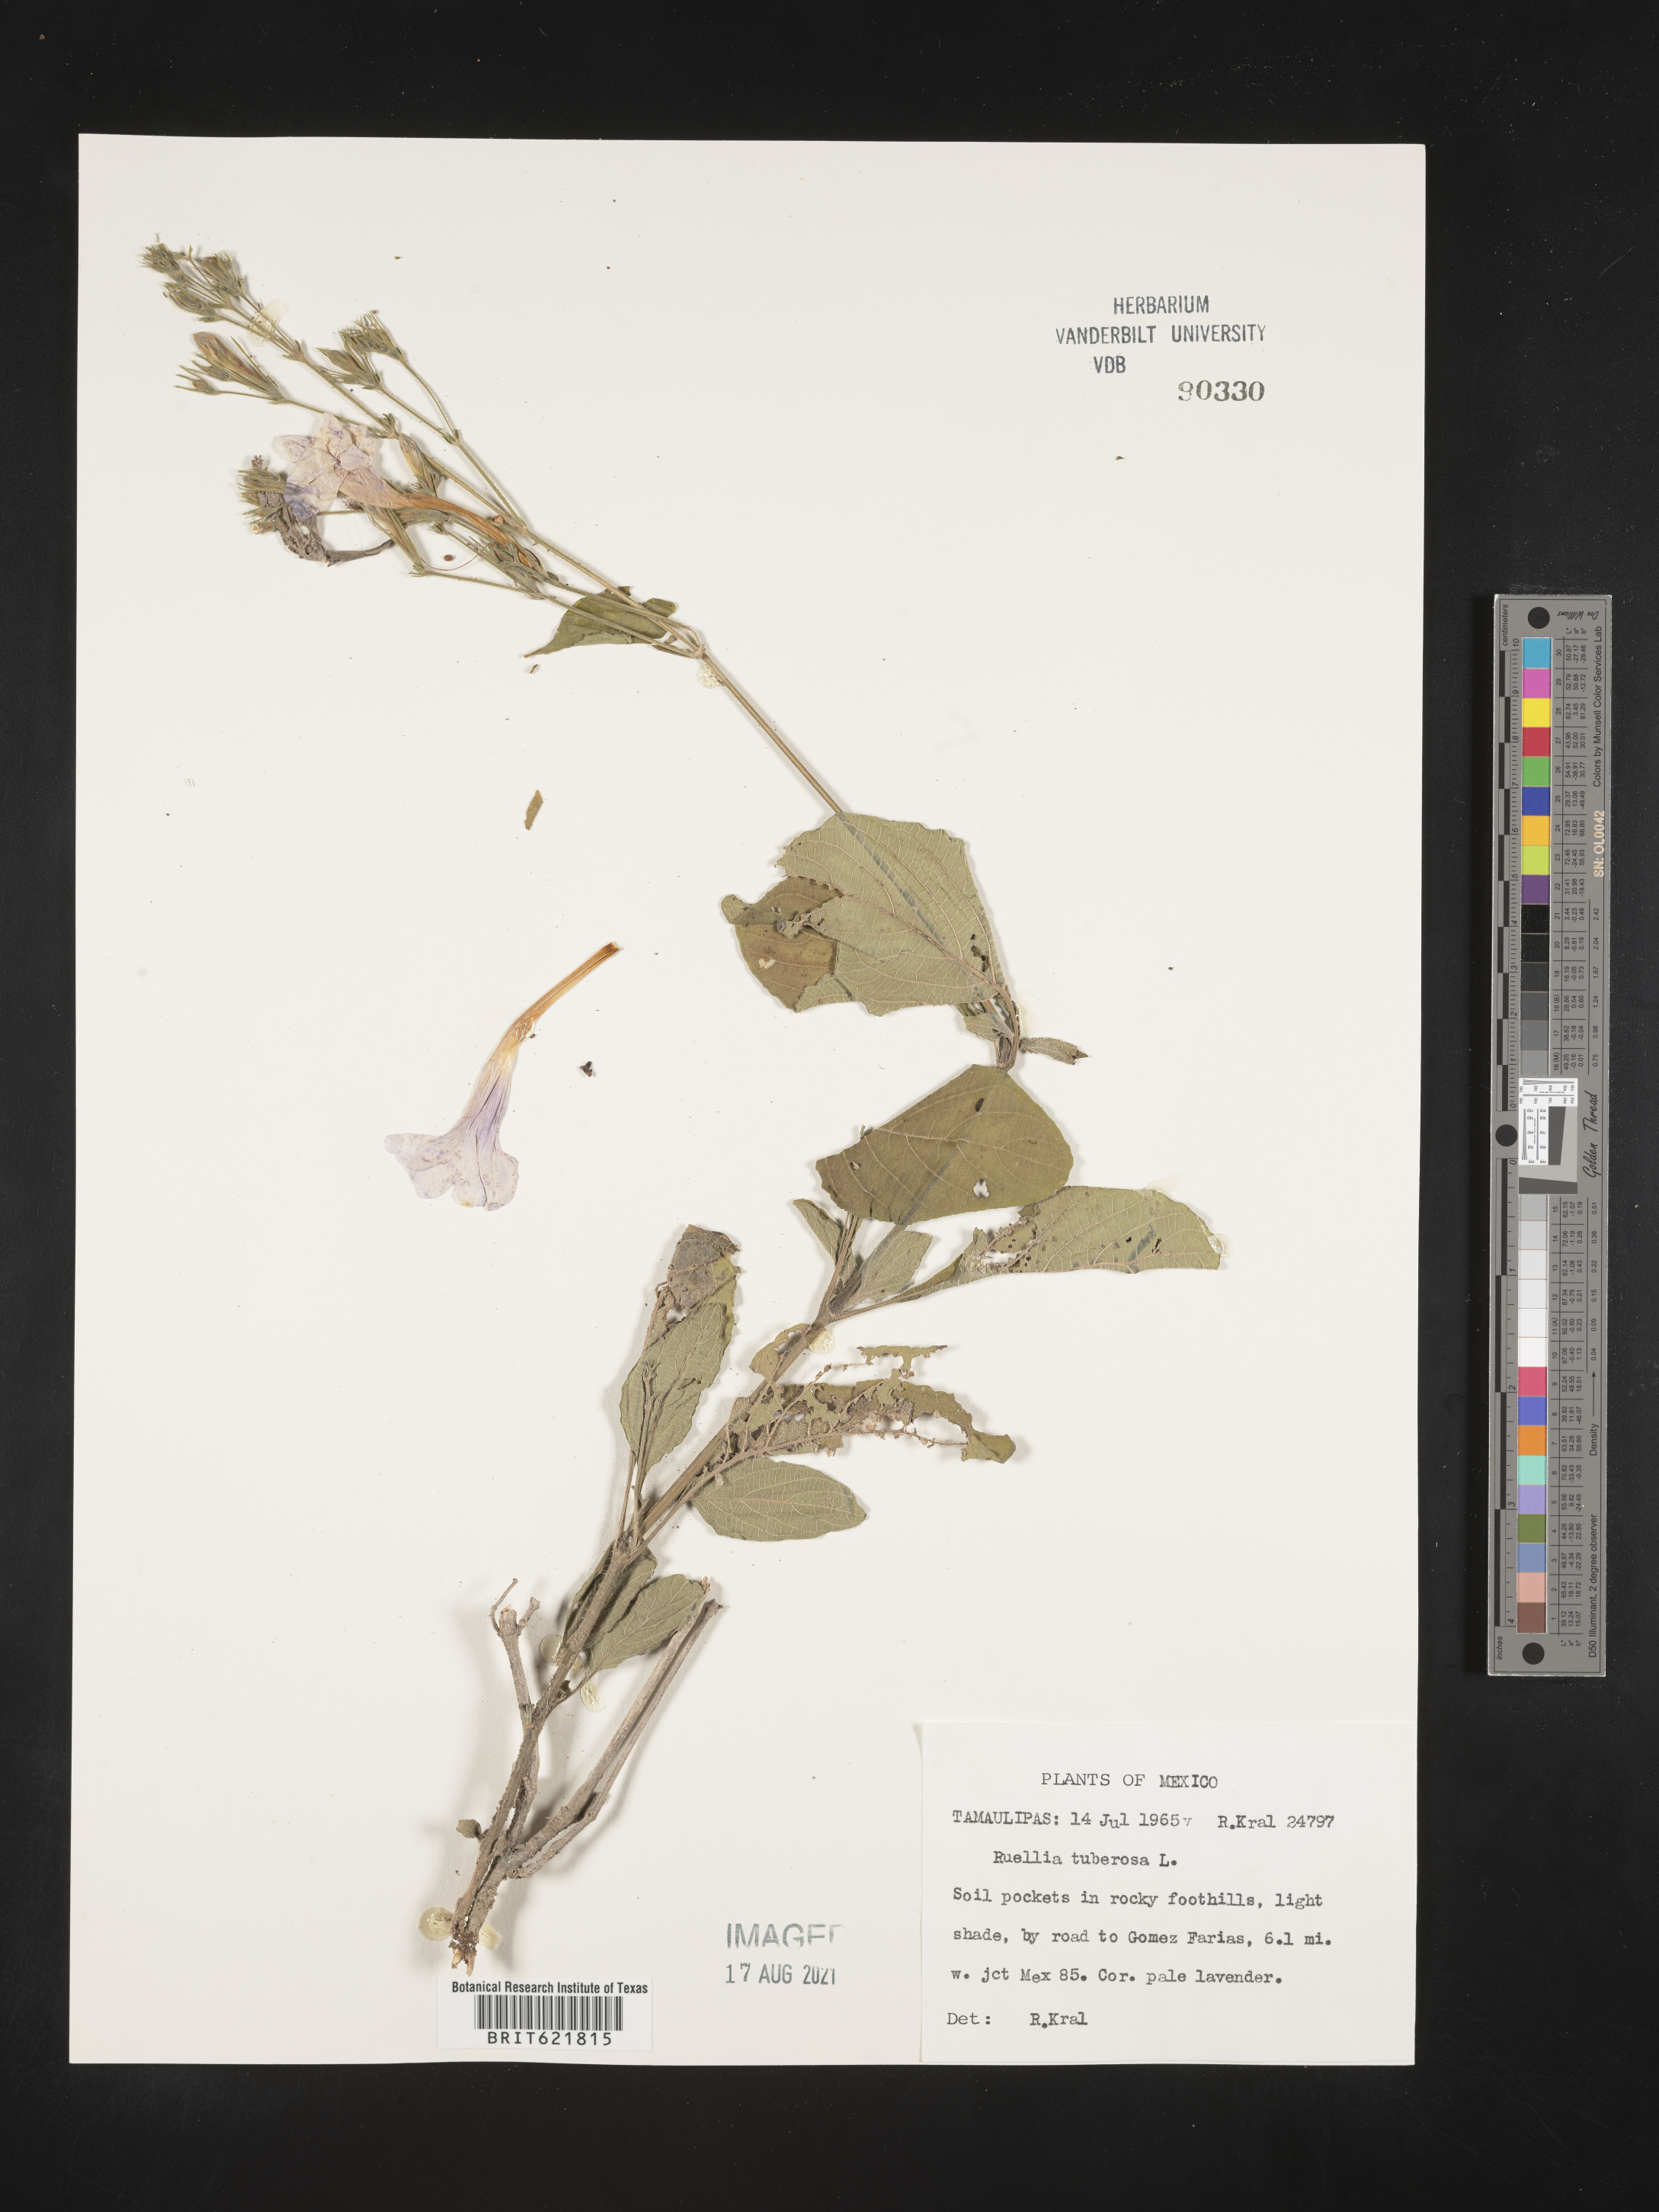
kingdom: Plantae
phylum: Tracheophyta
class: Magnoliopsida
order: Lamiales
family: Acanthaceae
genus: Ruellia
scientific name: Ruellia
